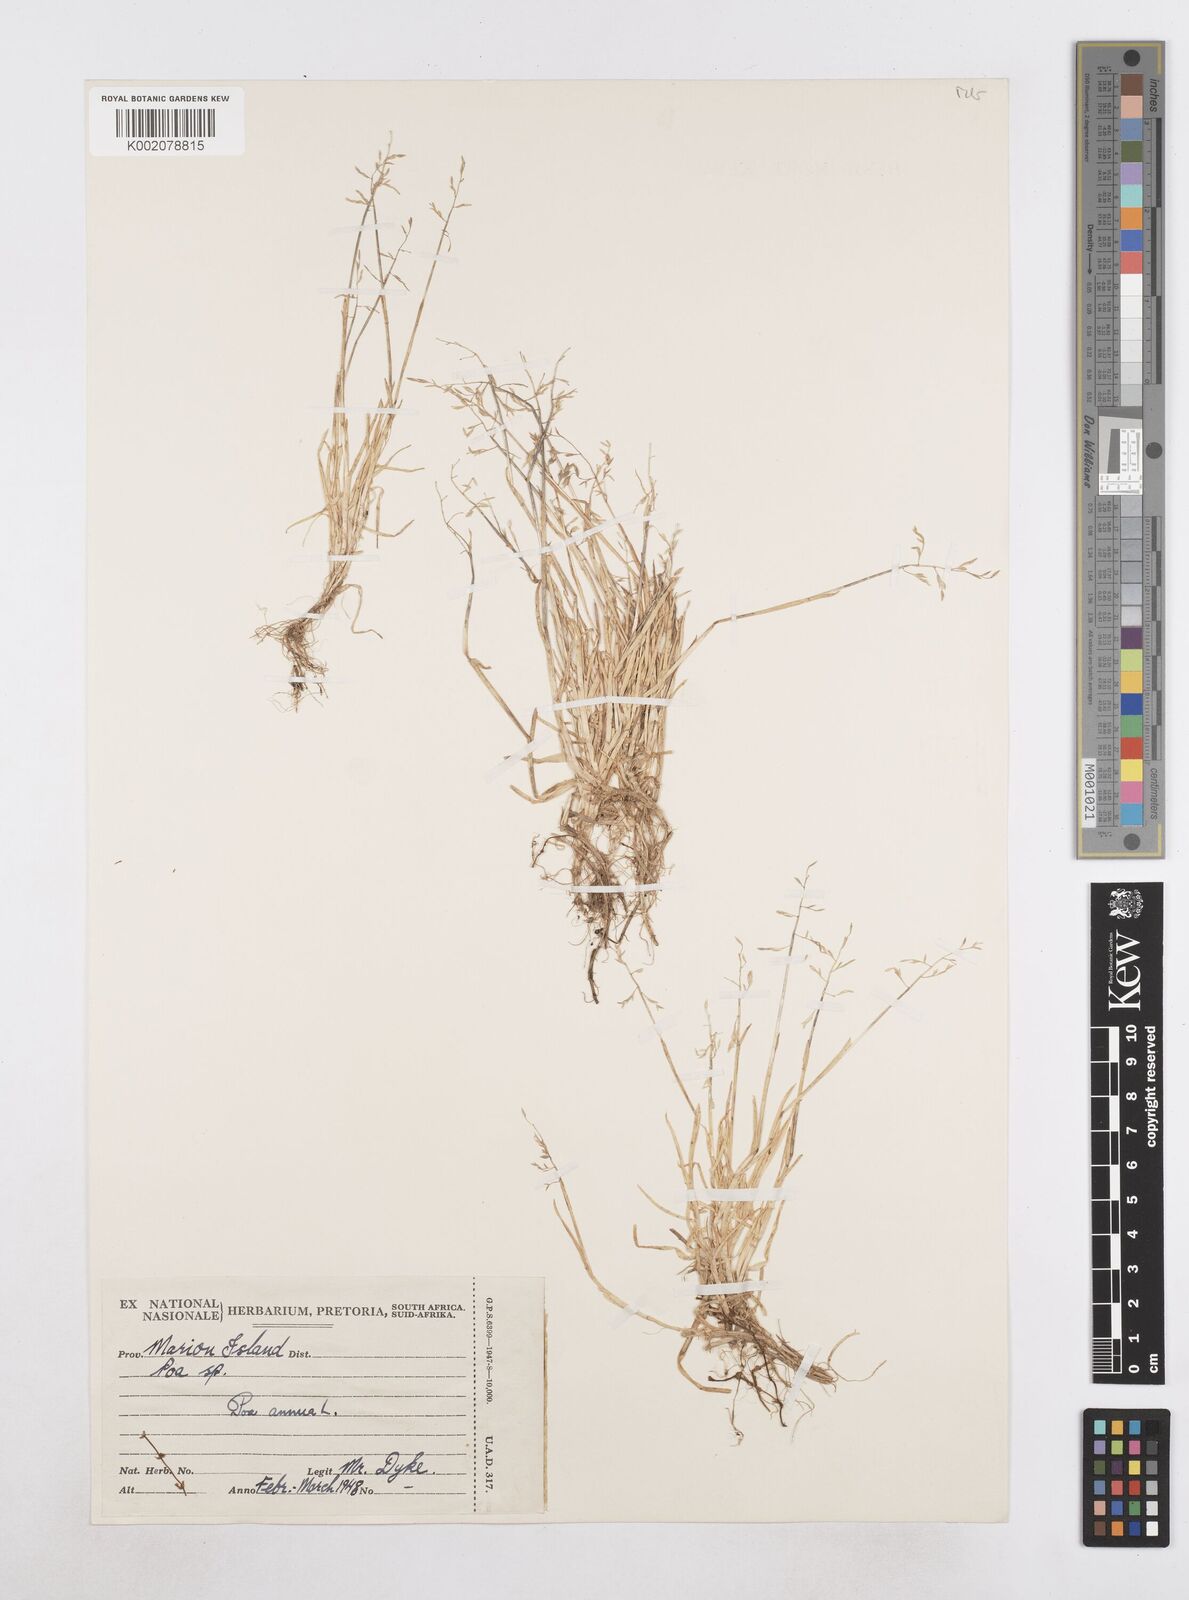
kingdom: Plantae
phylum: Tracheophyta
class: Liliopsida
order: Poales
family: Poaceae
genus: Poa
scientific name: Poa annua
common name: Annual bluegrass
